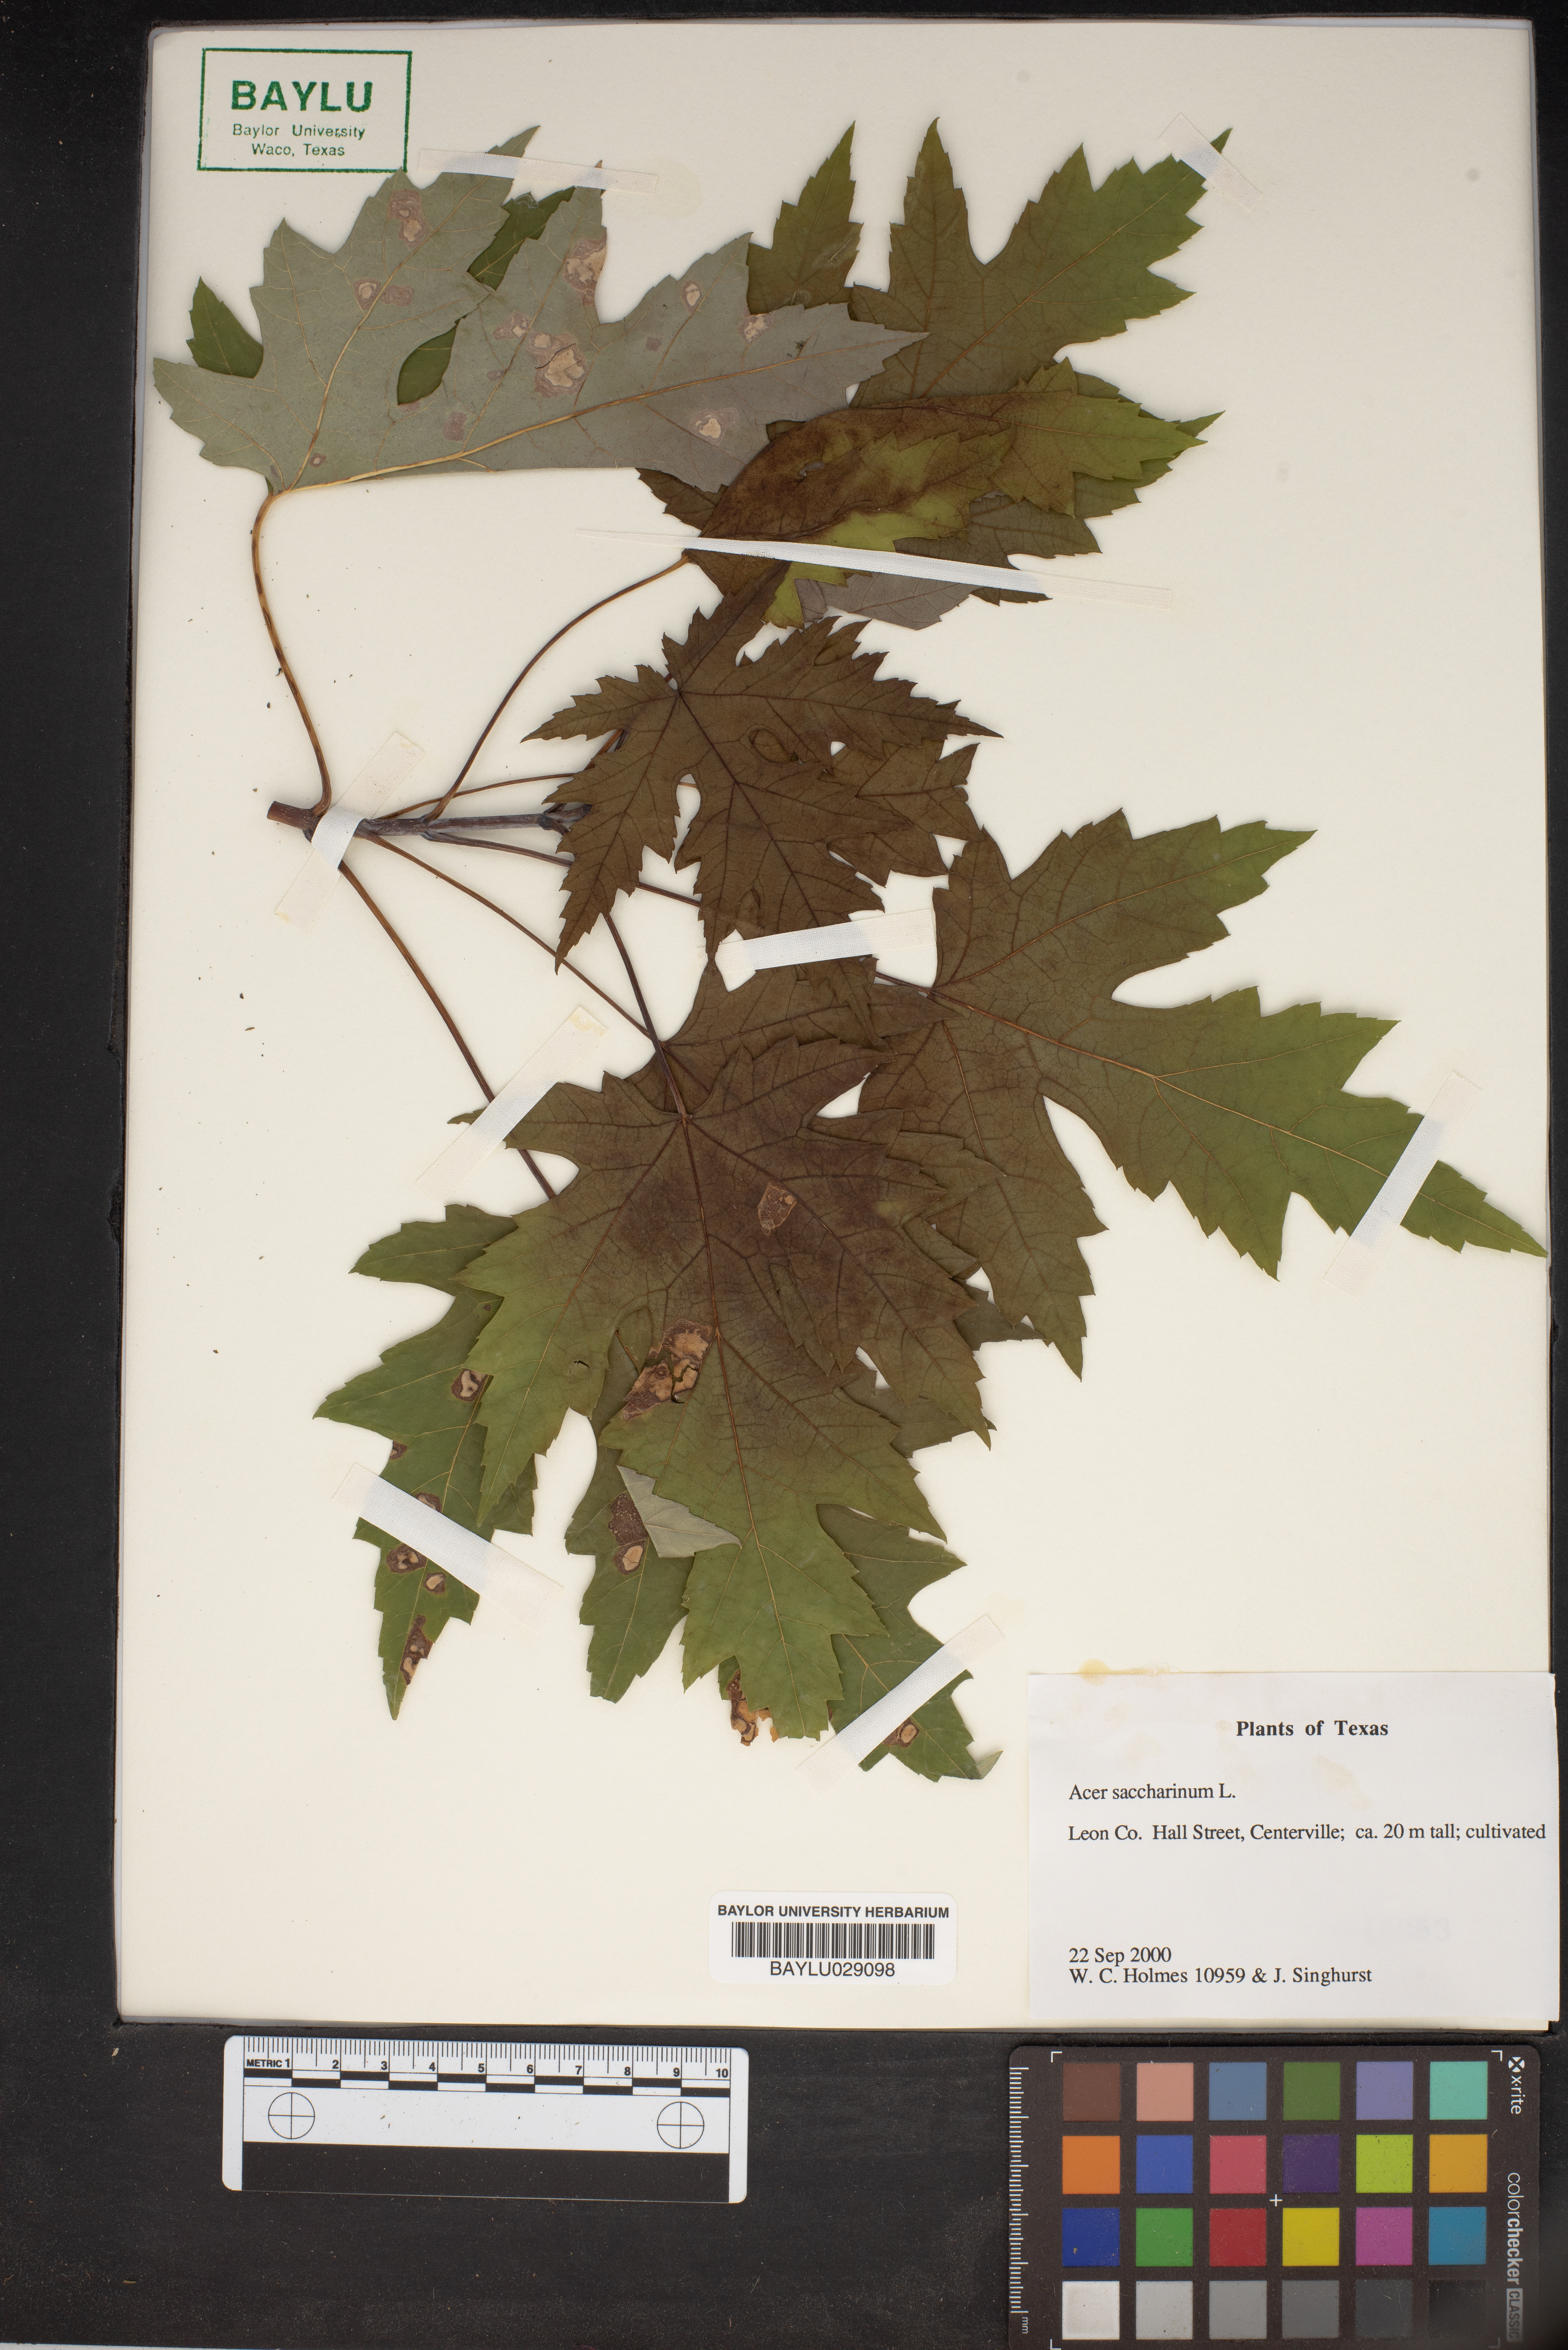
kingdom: Plantae
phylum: Tracheophyta
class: Magnoliopsida
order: Sapindales
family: Sapindaceae
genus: Acer
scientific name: Acer saccharinum
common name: Silver maple
